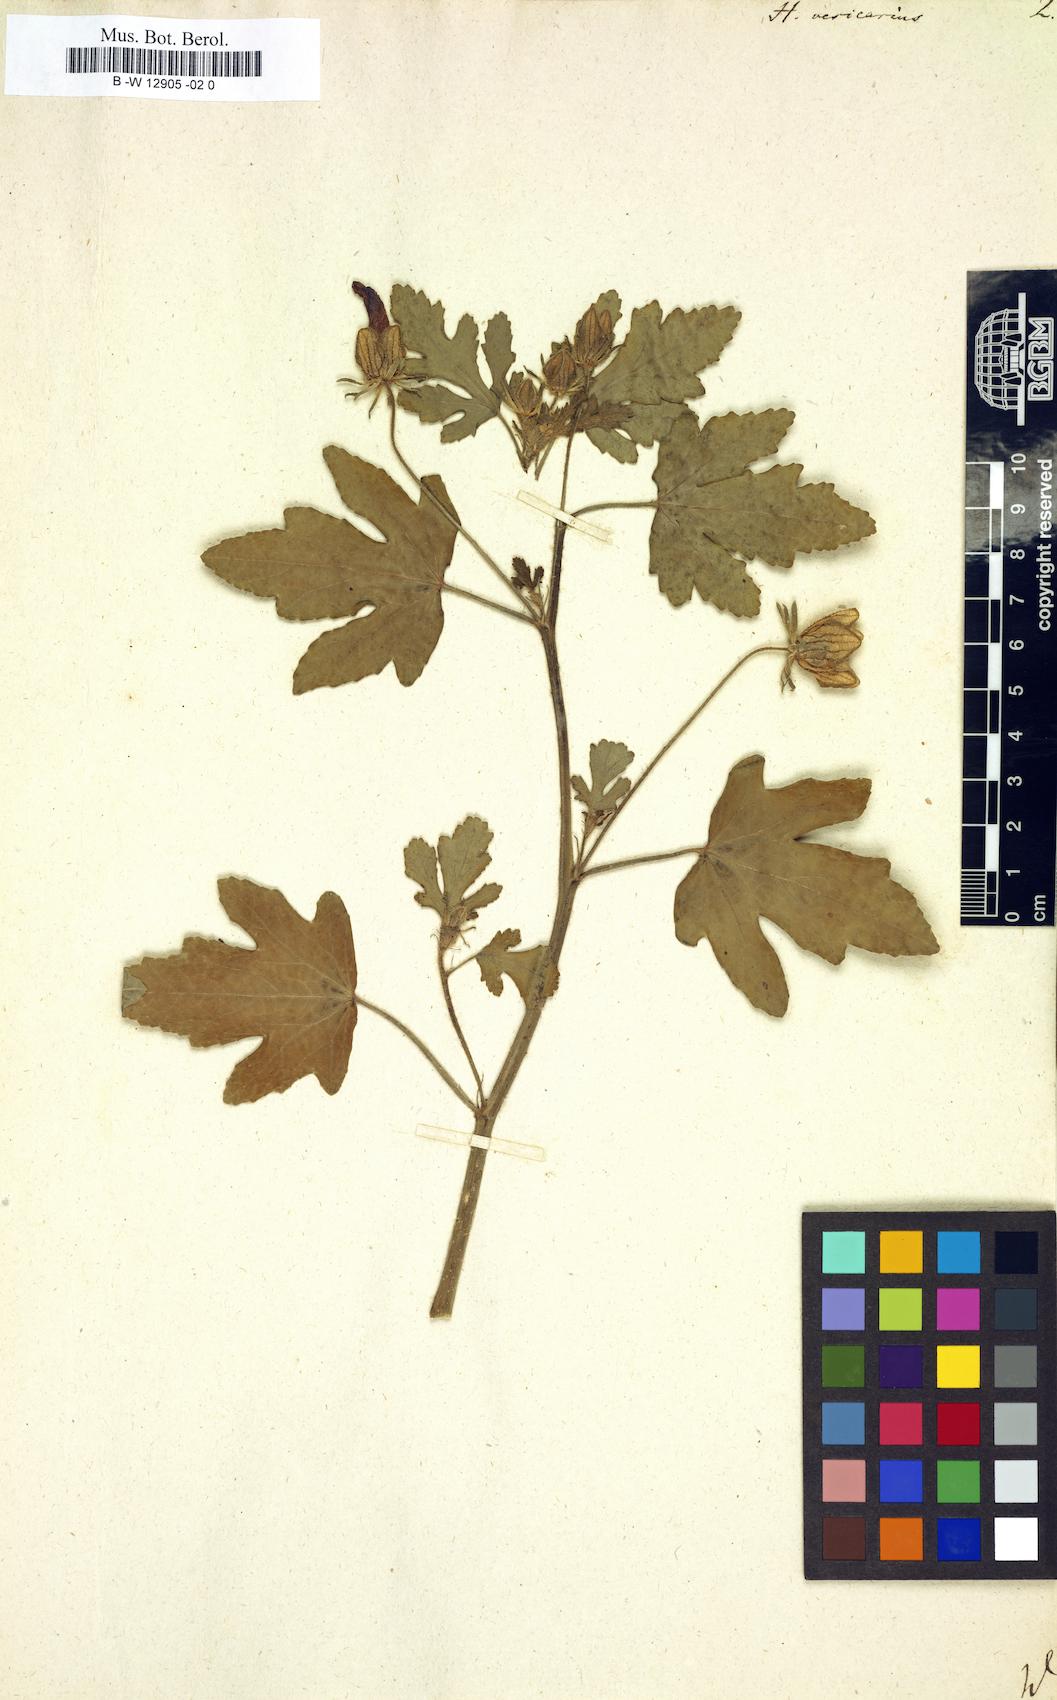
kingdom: Plantae
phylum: Tracheophyta
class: Magnoliopsida
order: Malvales
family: Malvaceae
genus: Hibiscus
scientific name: Hibiscus trionum
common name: Bladder ketmia
